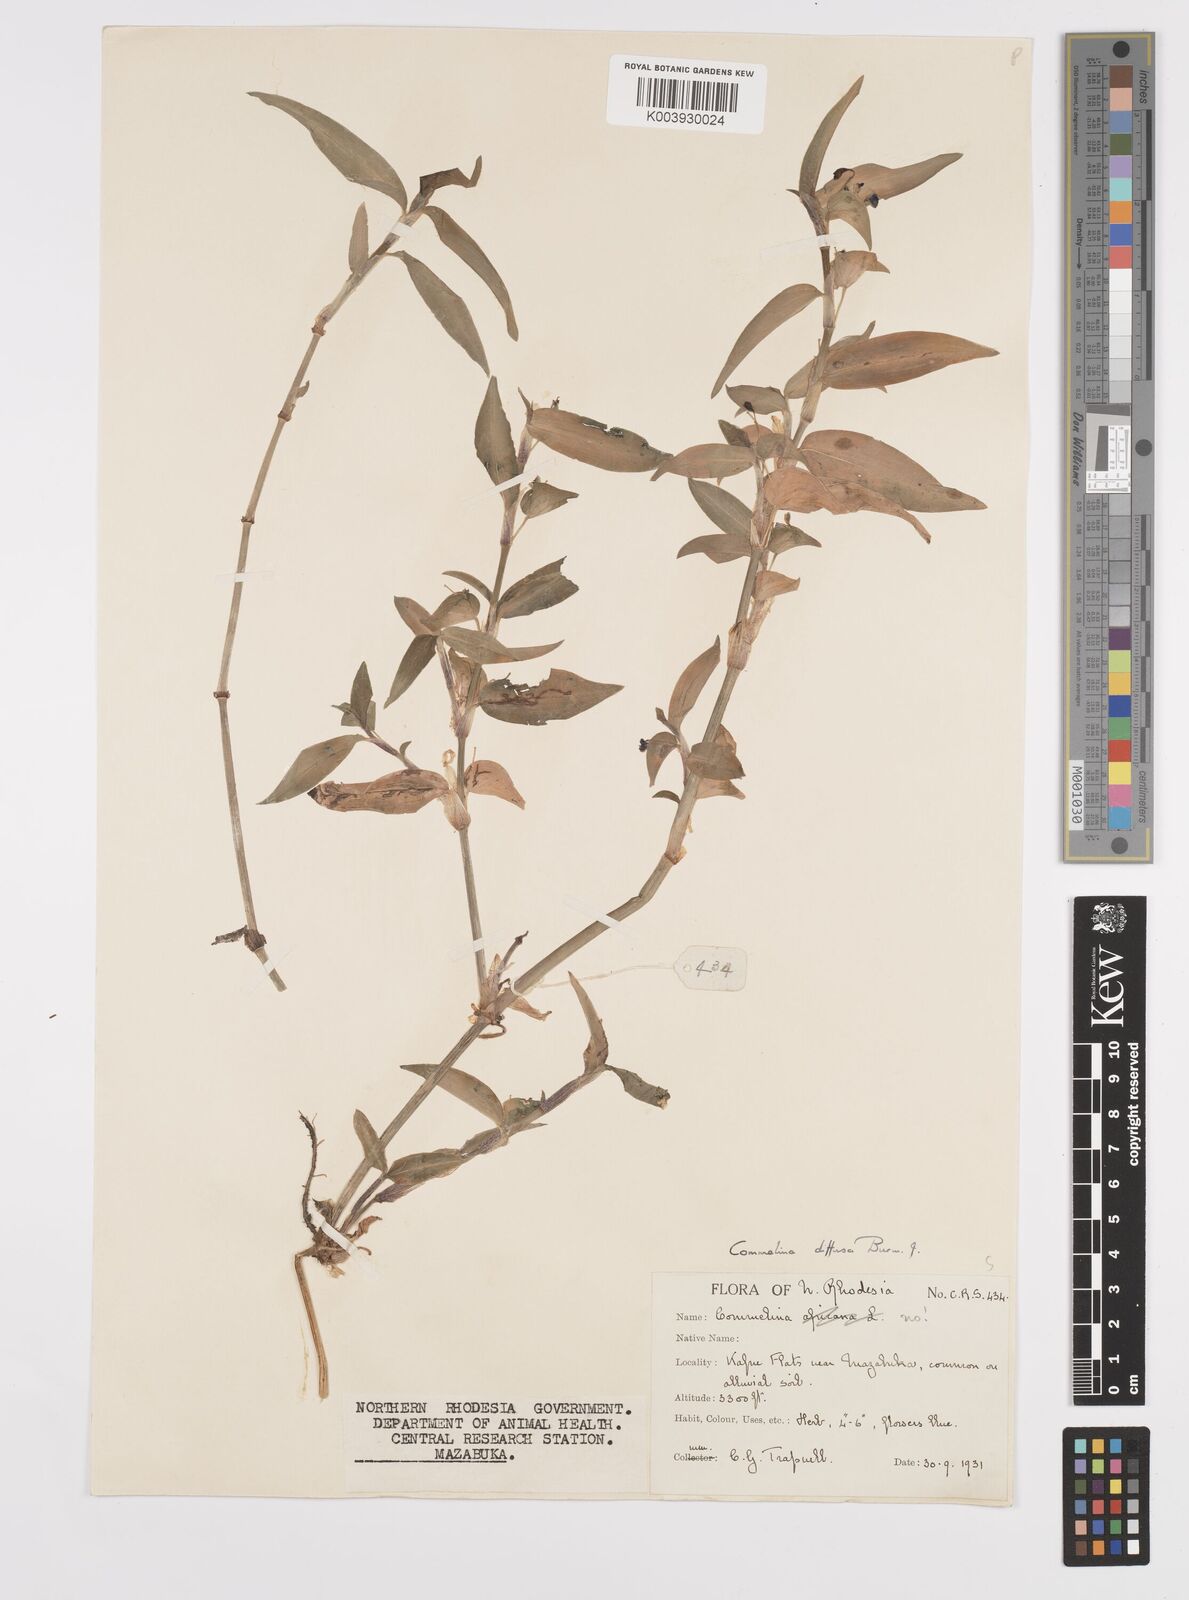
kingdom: Plantae
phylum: Tracheophyta
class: Liliopsida
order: Commelinales
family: Commelinaceae
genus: Commelina
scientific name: Commelina diffusa
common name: Climbing dayflower
